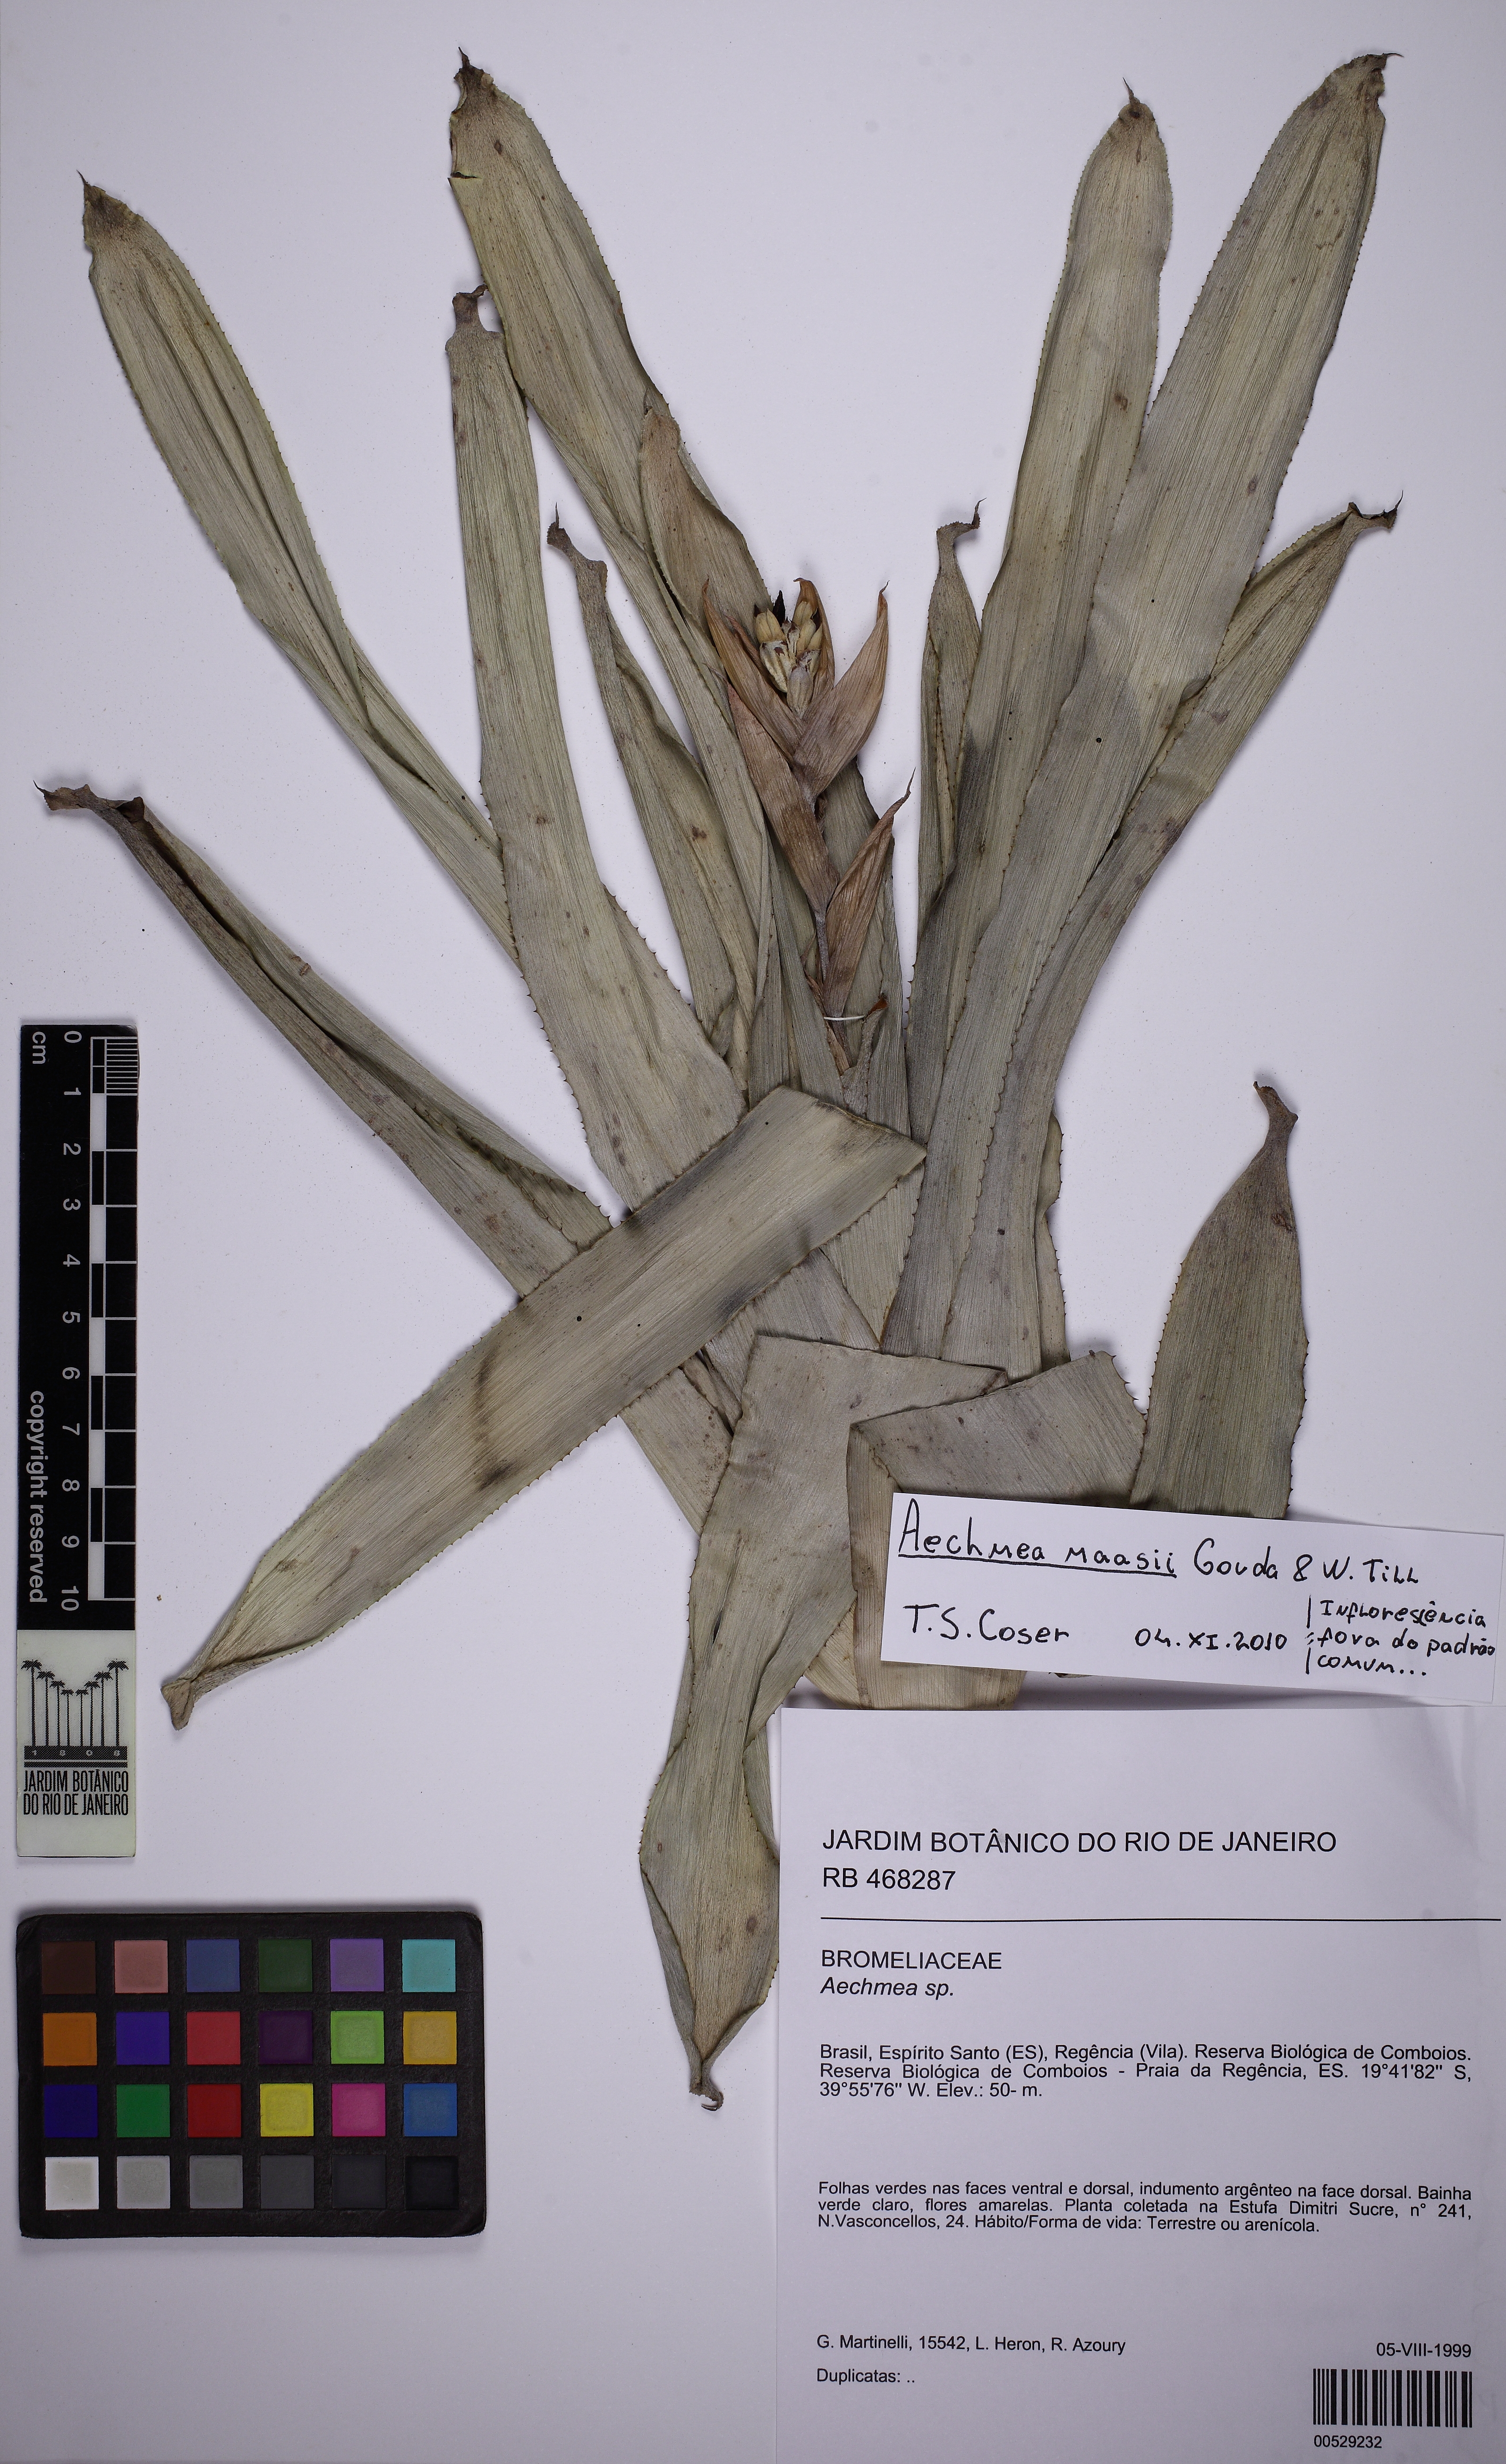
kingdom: Plantae
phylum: Tracheophyta
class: Liliopsida
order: Poales
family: Bromeliaceae
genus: Aechmea
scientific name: Aechmea maasii
